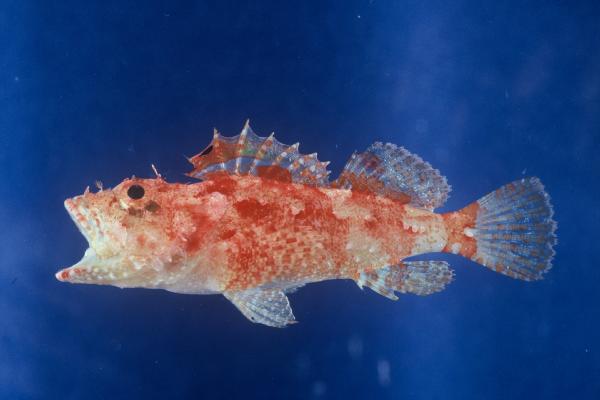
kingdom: Animalia
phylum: Chordata
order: Scorpaeniformes
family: Scorpaenidae
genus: Iracundus
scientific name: Iracundus signifer
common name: Decoy scorpionfish
